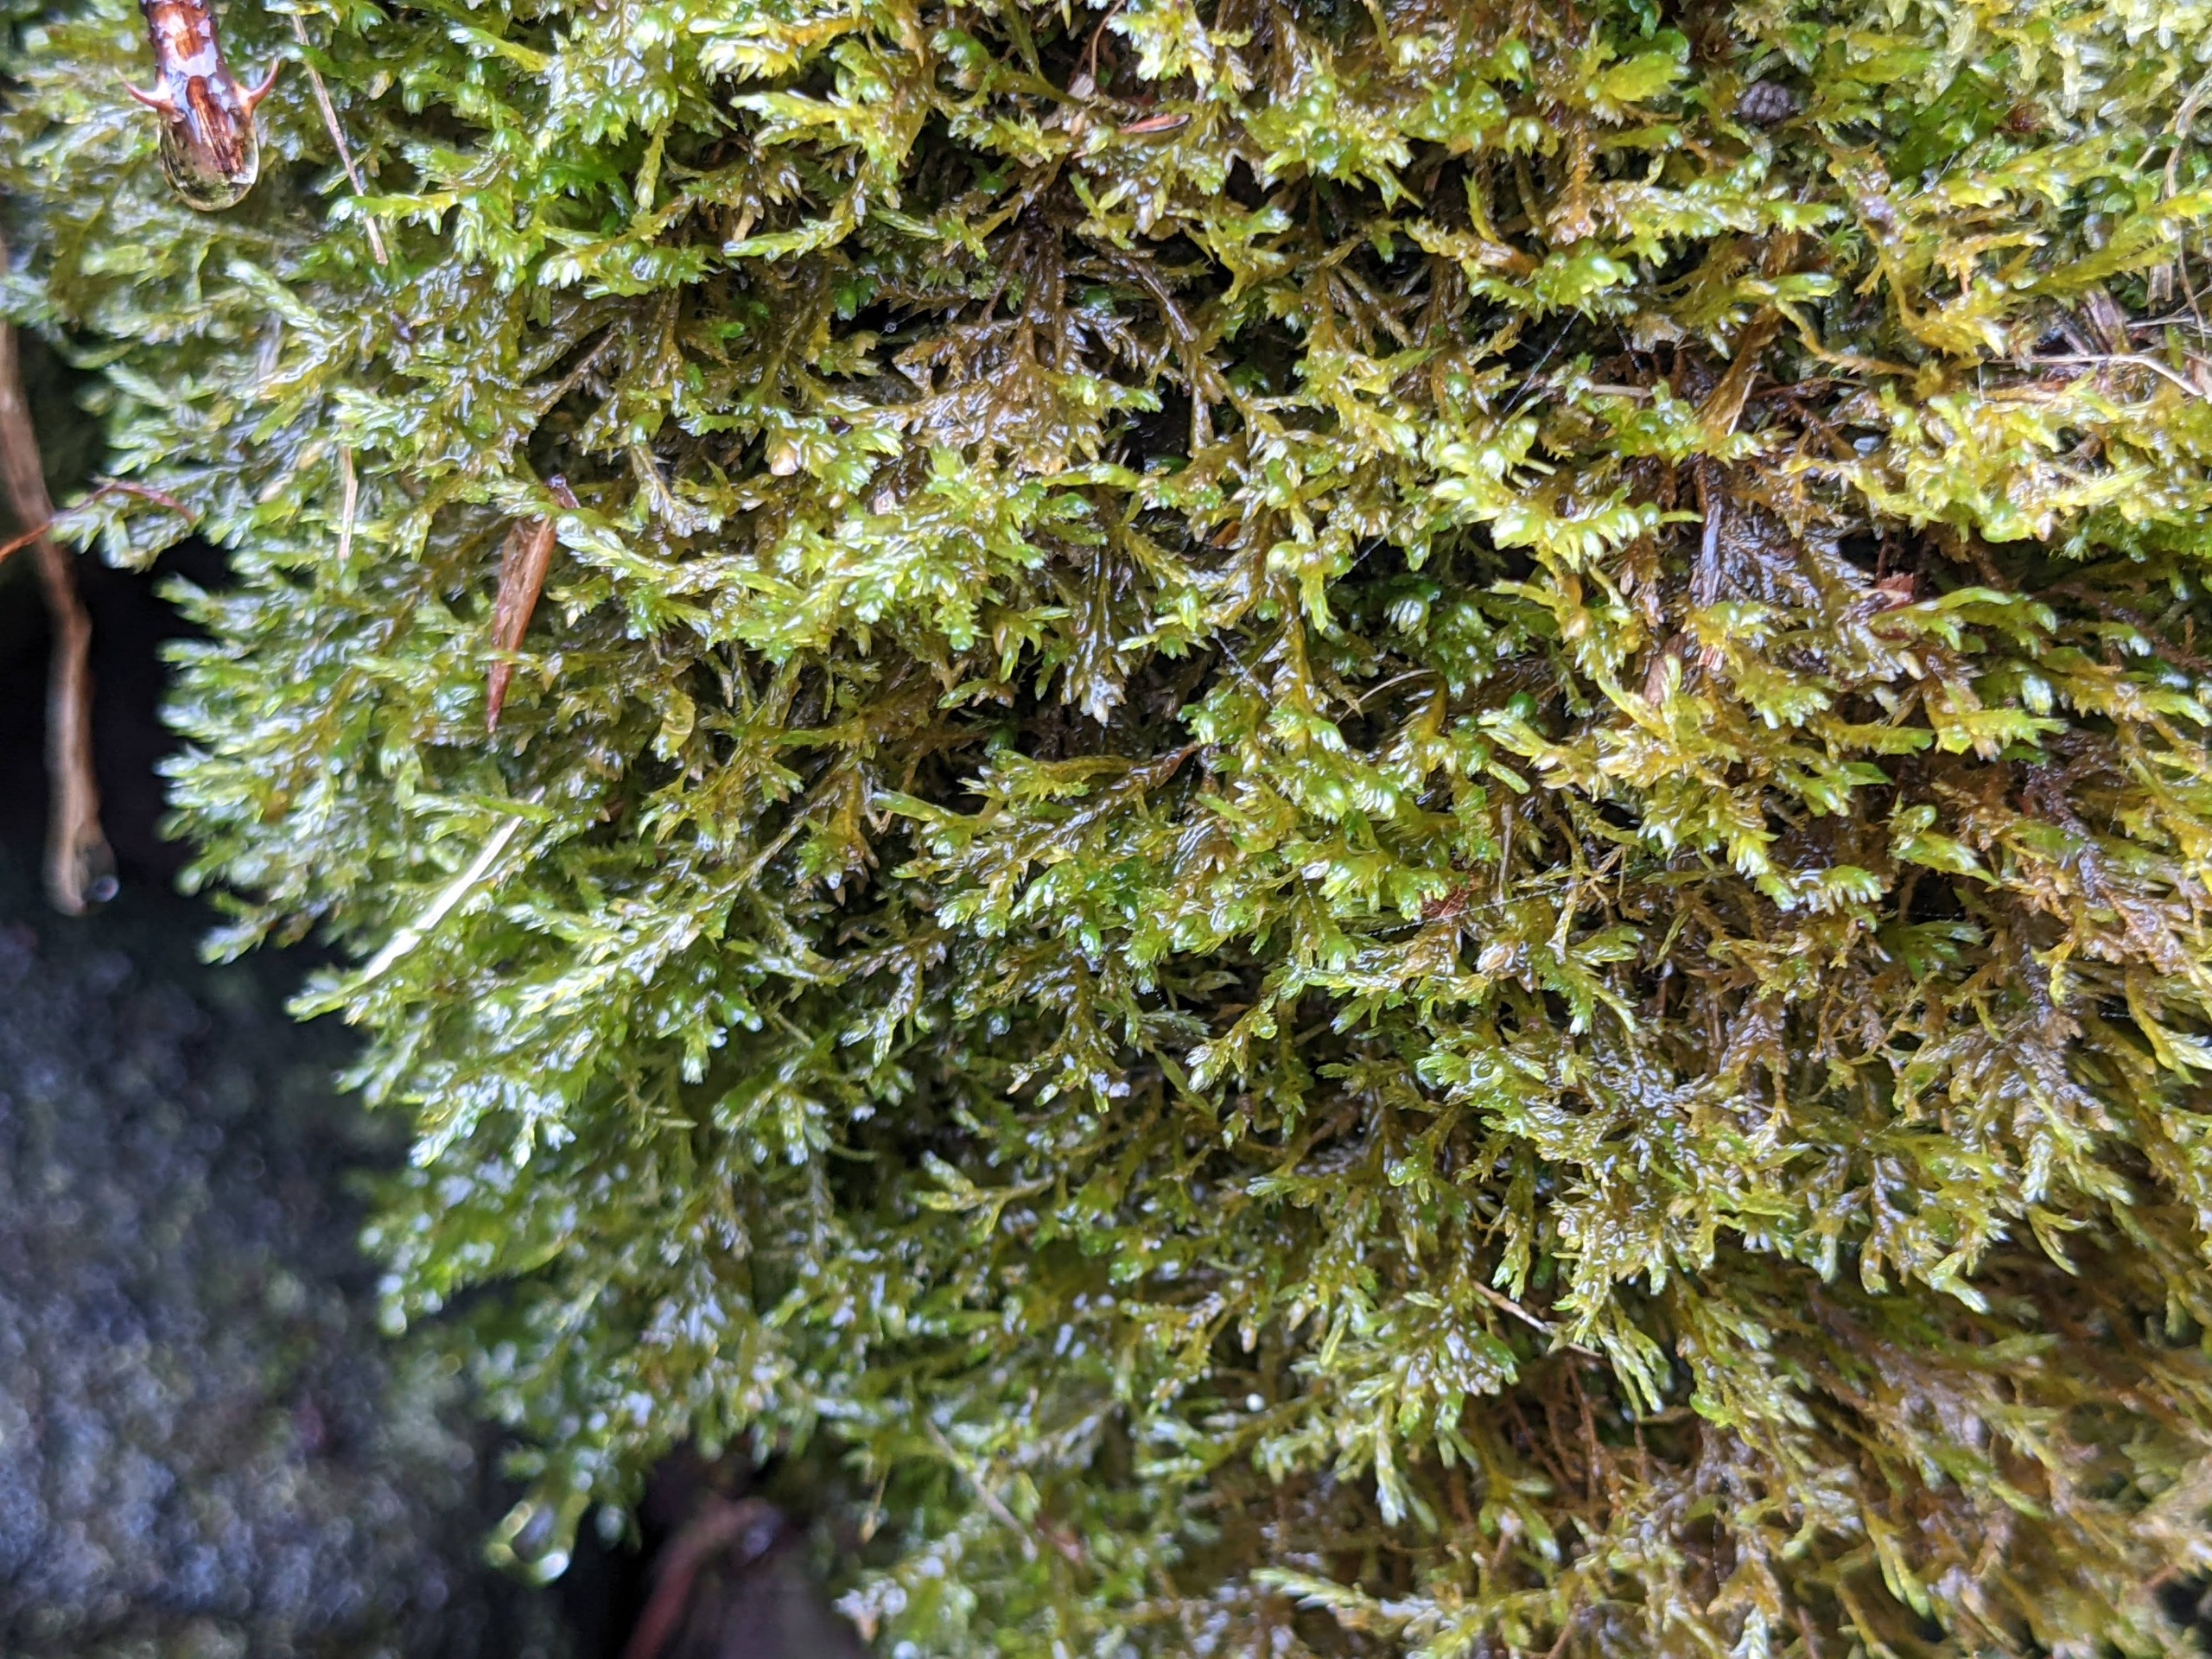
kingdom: Plantae
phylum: Bryophyta
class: Bryopsida
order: Hypnales
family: Neckeraceae
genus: Alleniella
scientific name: Alleniella complanata
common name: Almindelig fladmos
